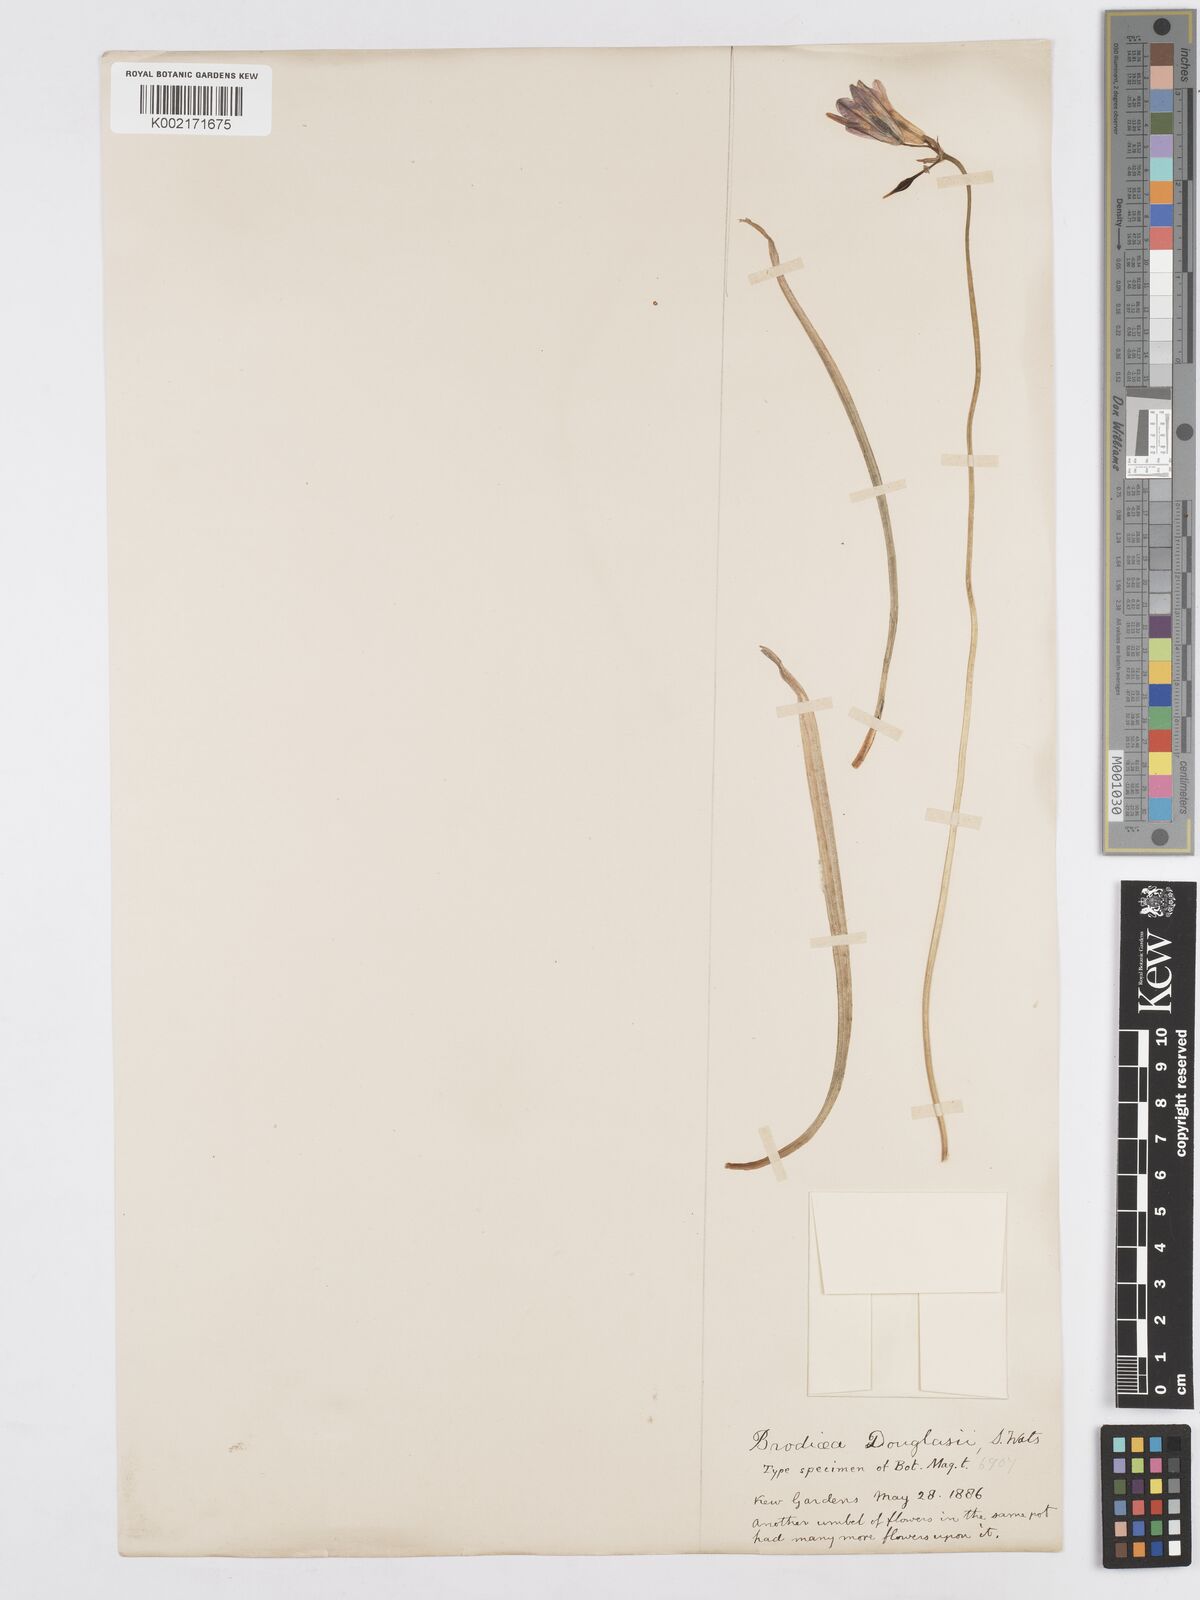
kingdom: Plantae
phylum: Tracheophyta
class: Liliopsida
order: Asparagales
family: Asparagaceae
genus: Triteleia
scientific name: Triteleia grandiflora
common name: Wild hyacinth
